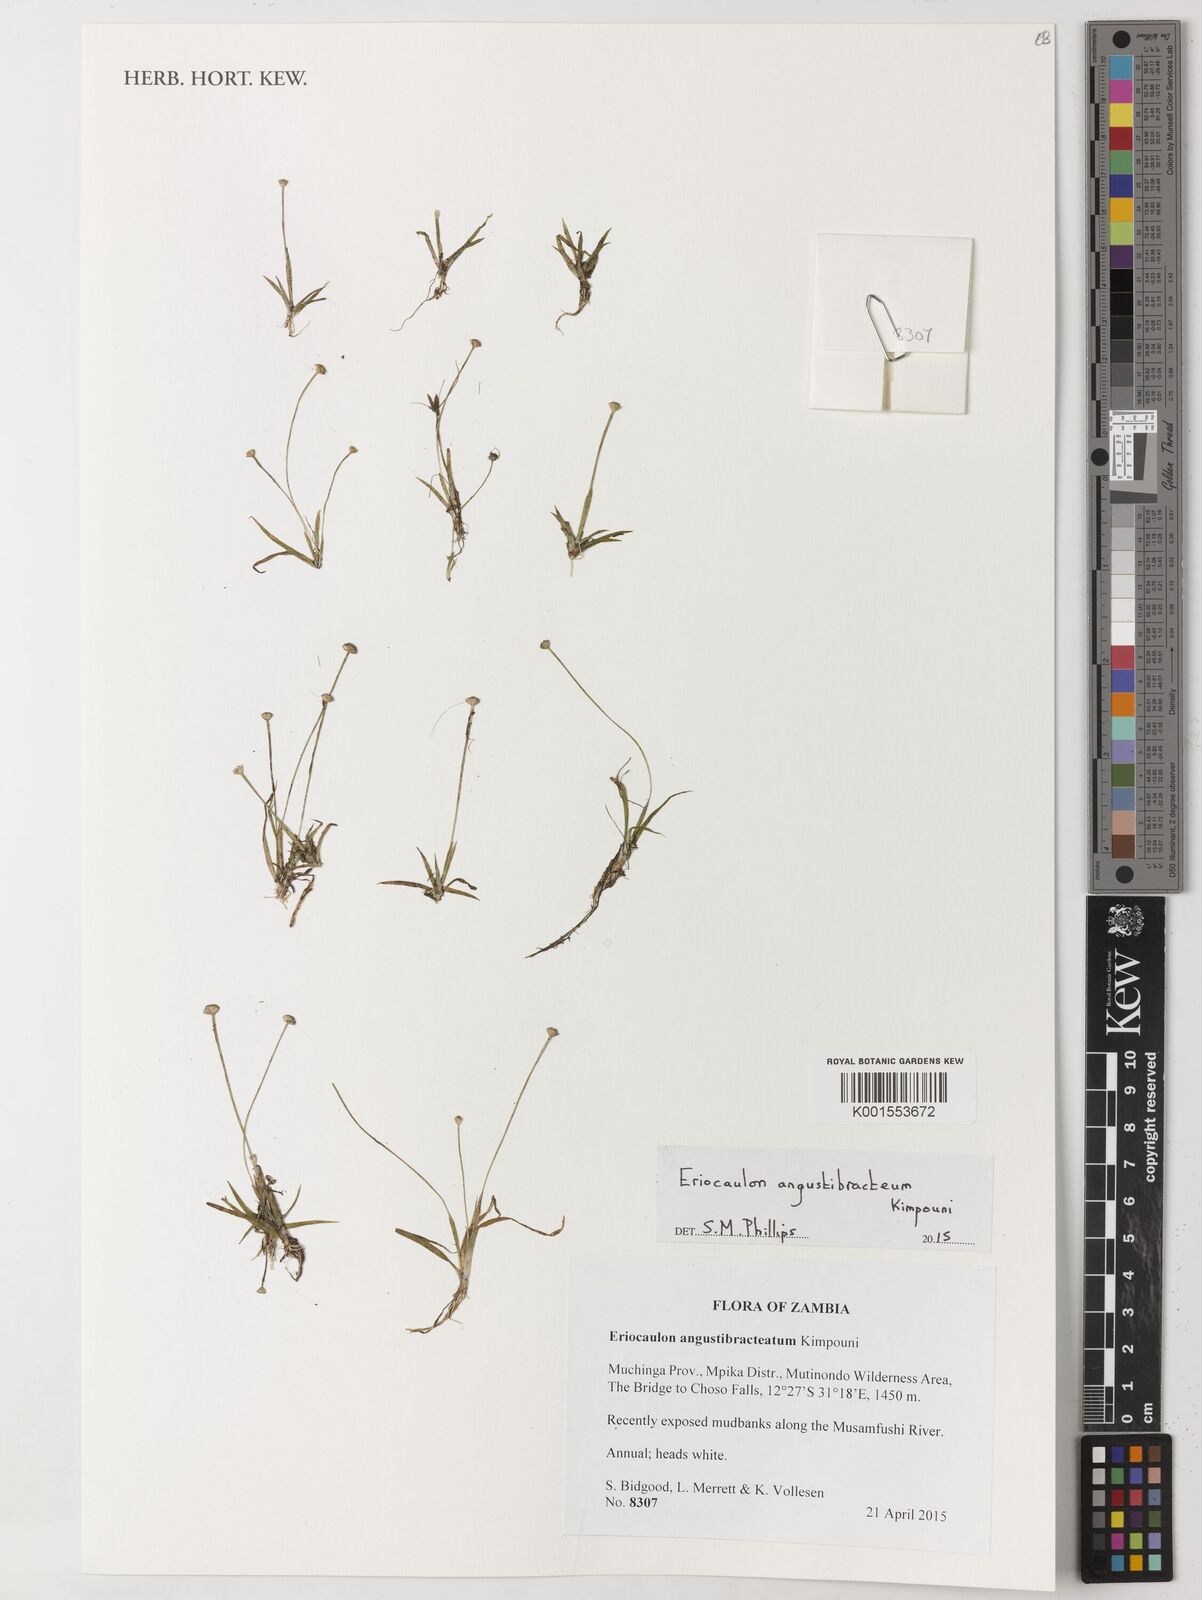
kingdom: Plantae
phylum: Tracheophyta
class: Liliopsida
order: Poales
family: Eriocaulaceae
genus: Eriocaulon
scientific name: Eriocaulon angustibracteum
